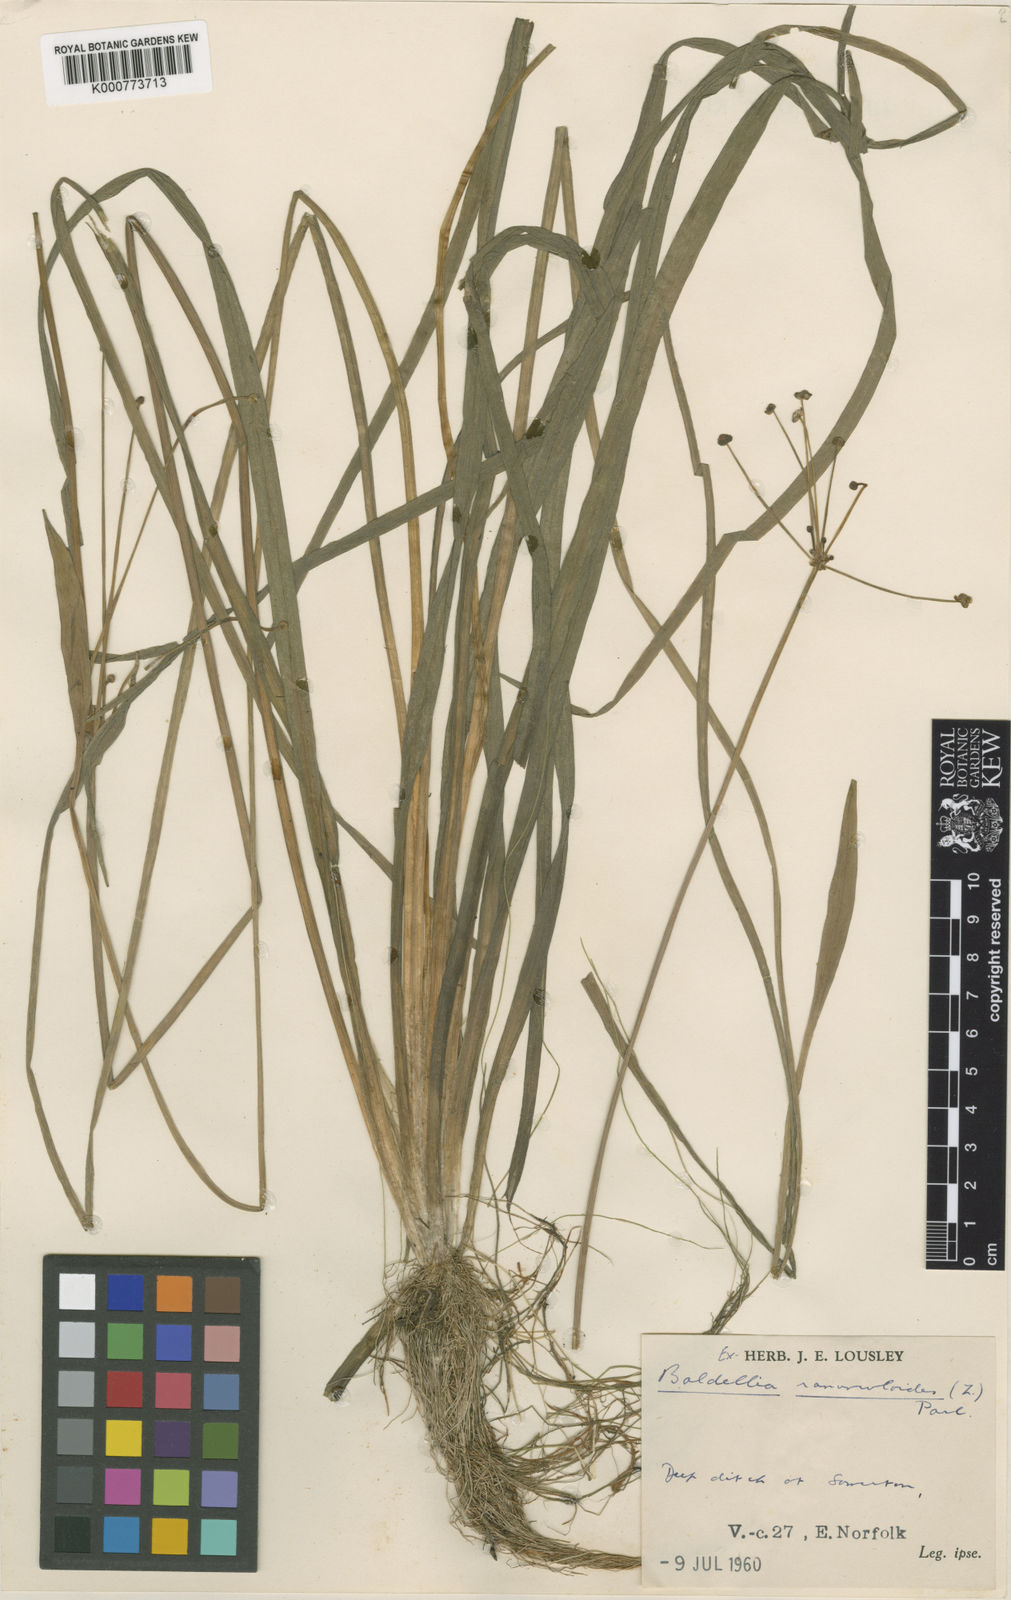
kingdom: Plantae
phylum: Tracheophyta
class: Liliopsida
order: Alismatales
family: Alismataceae
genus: Baldellia
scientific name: Baldellia ranunculoides
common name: Lesser water-plantain
